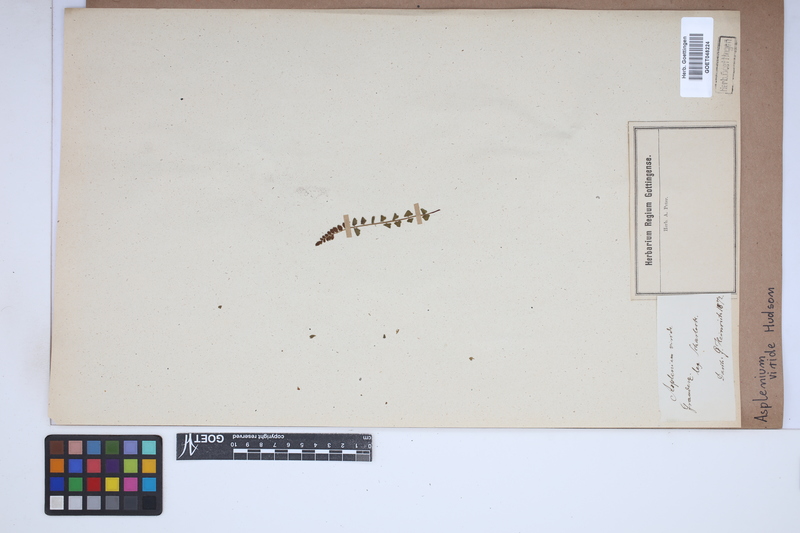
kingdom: Plantae
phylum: Tracheophyta
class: Polypodiopsida
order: Polypodiales
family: Aspleniaceae
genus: Asplenium
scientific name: Asplenium viride
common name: Green spleenwort
